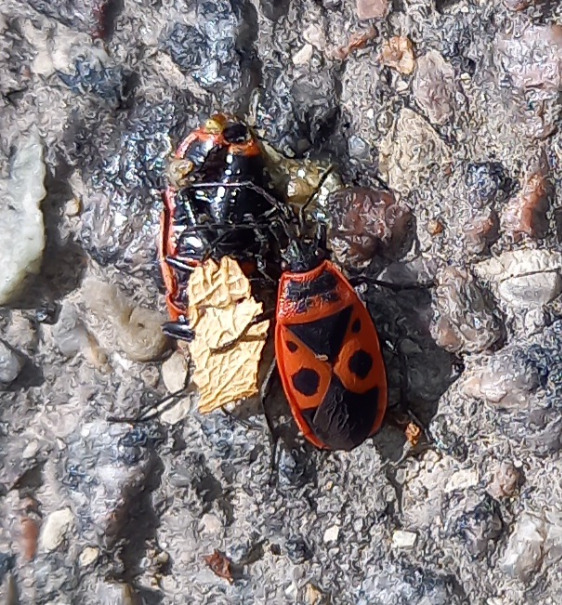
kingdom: Animalia
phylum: Arthropoda
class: Insecta
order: Hemiptera
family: Pyrrhocoridae
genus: Pyrrhocoris
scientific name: Pyrrhocoris apterus
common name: Ildtæge
